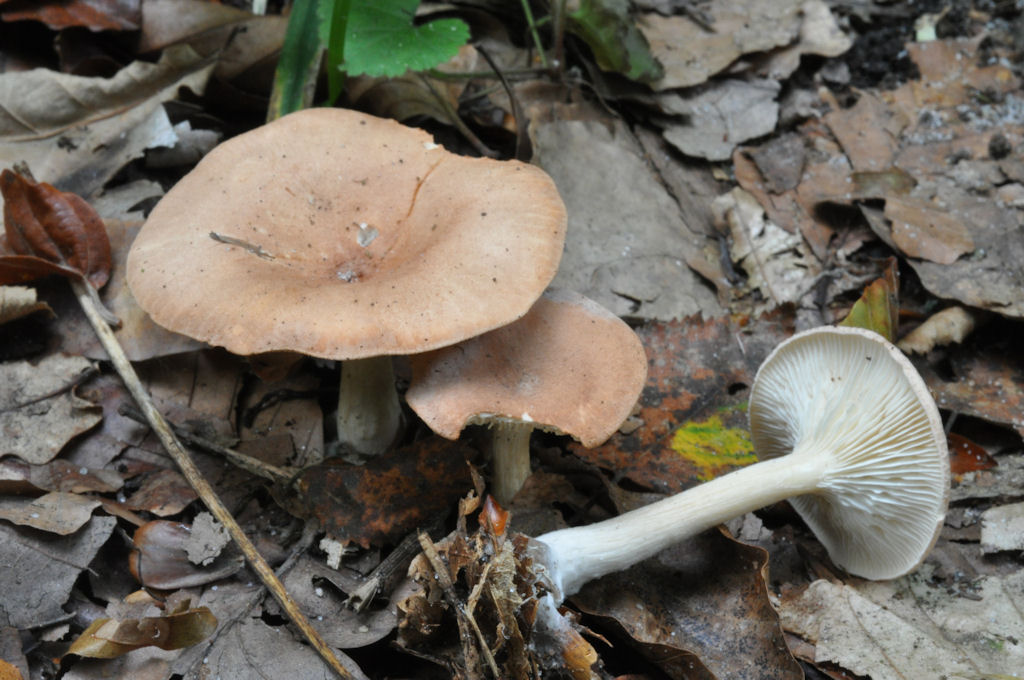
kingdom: Fungi
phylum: Basidiomycota
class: Agaricomycetes
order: Agaricales
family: Tricholomataceae
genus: Infundibulicybe
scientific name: Infundibulicybe gibba
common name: almindelig tragthat
